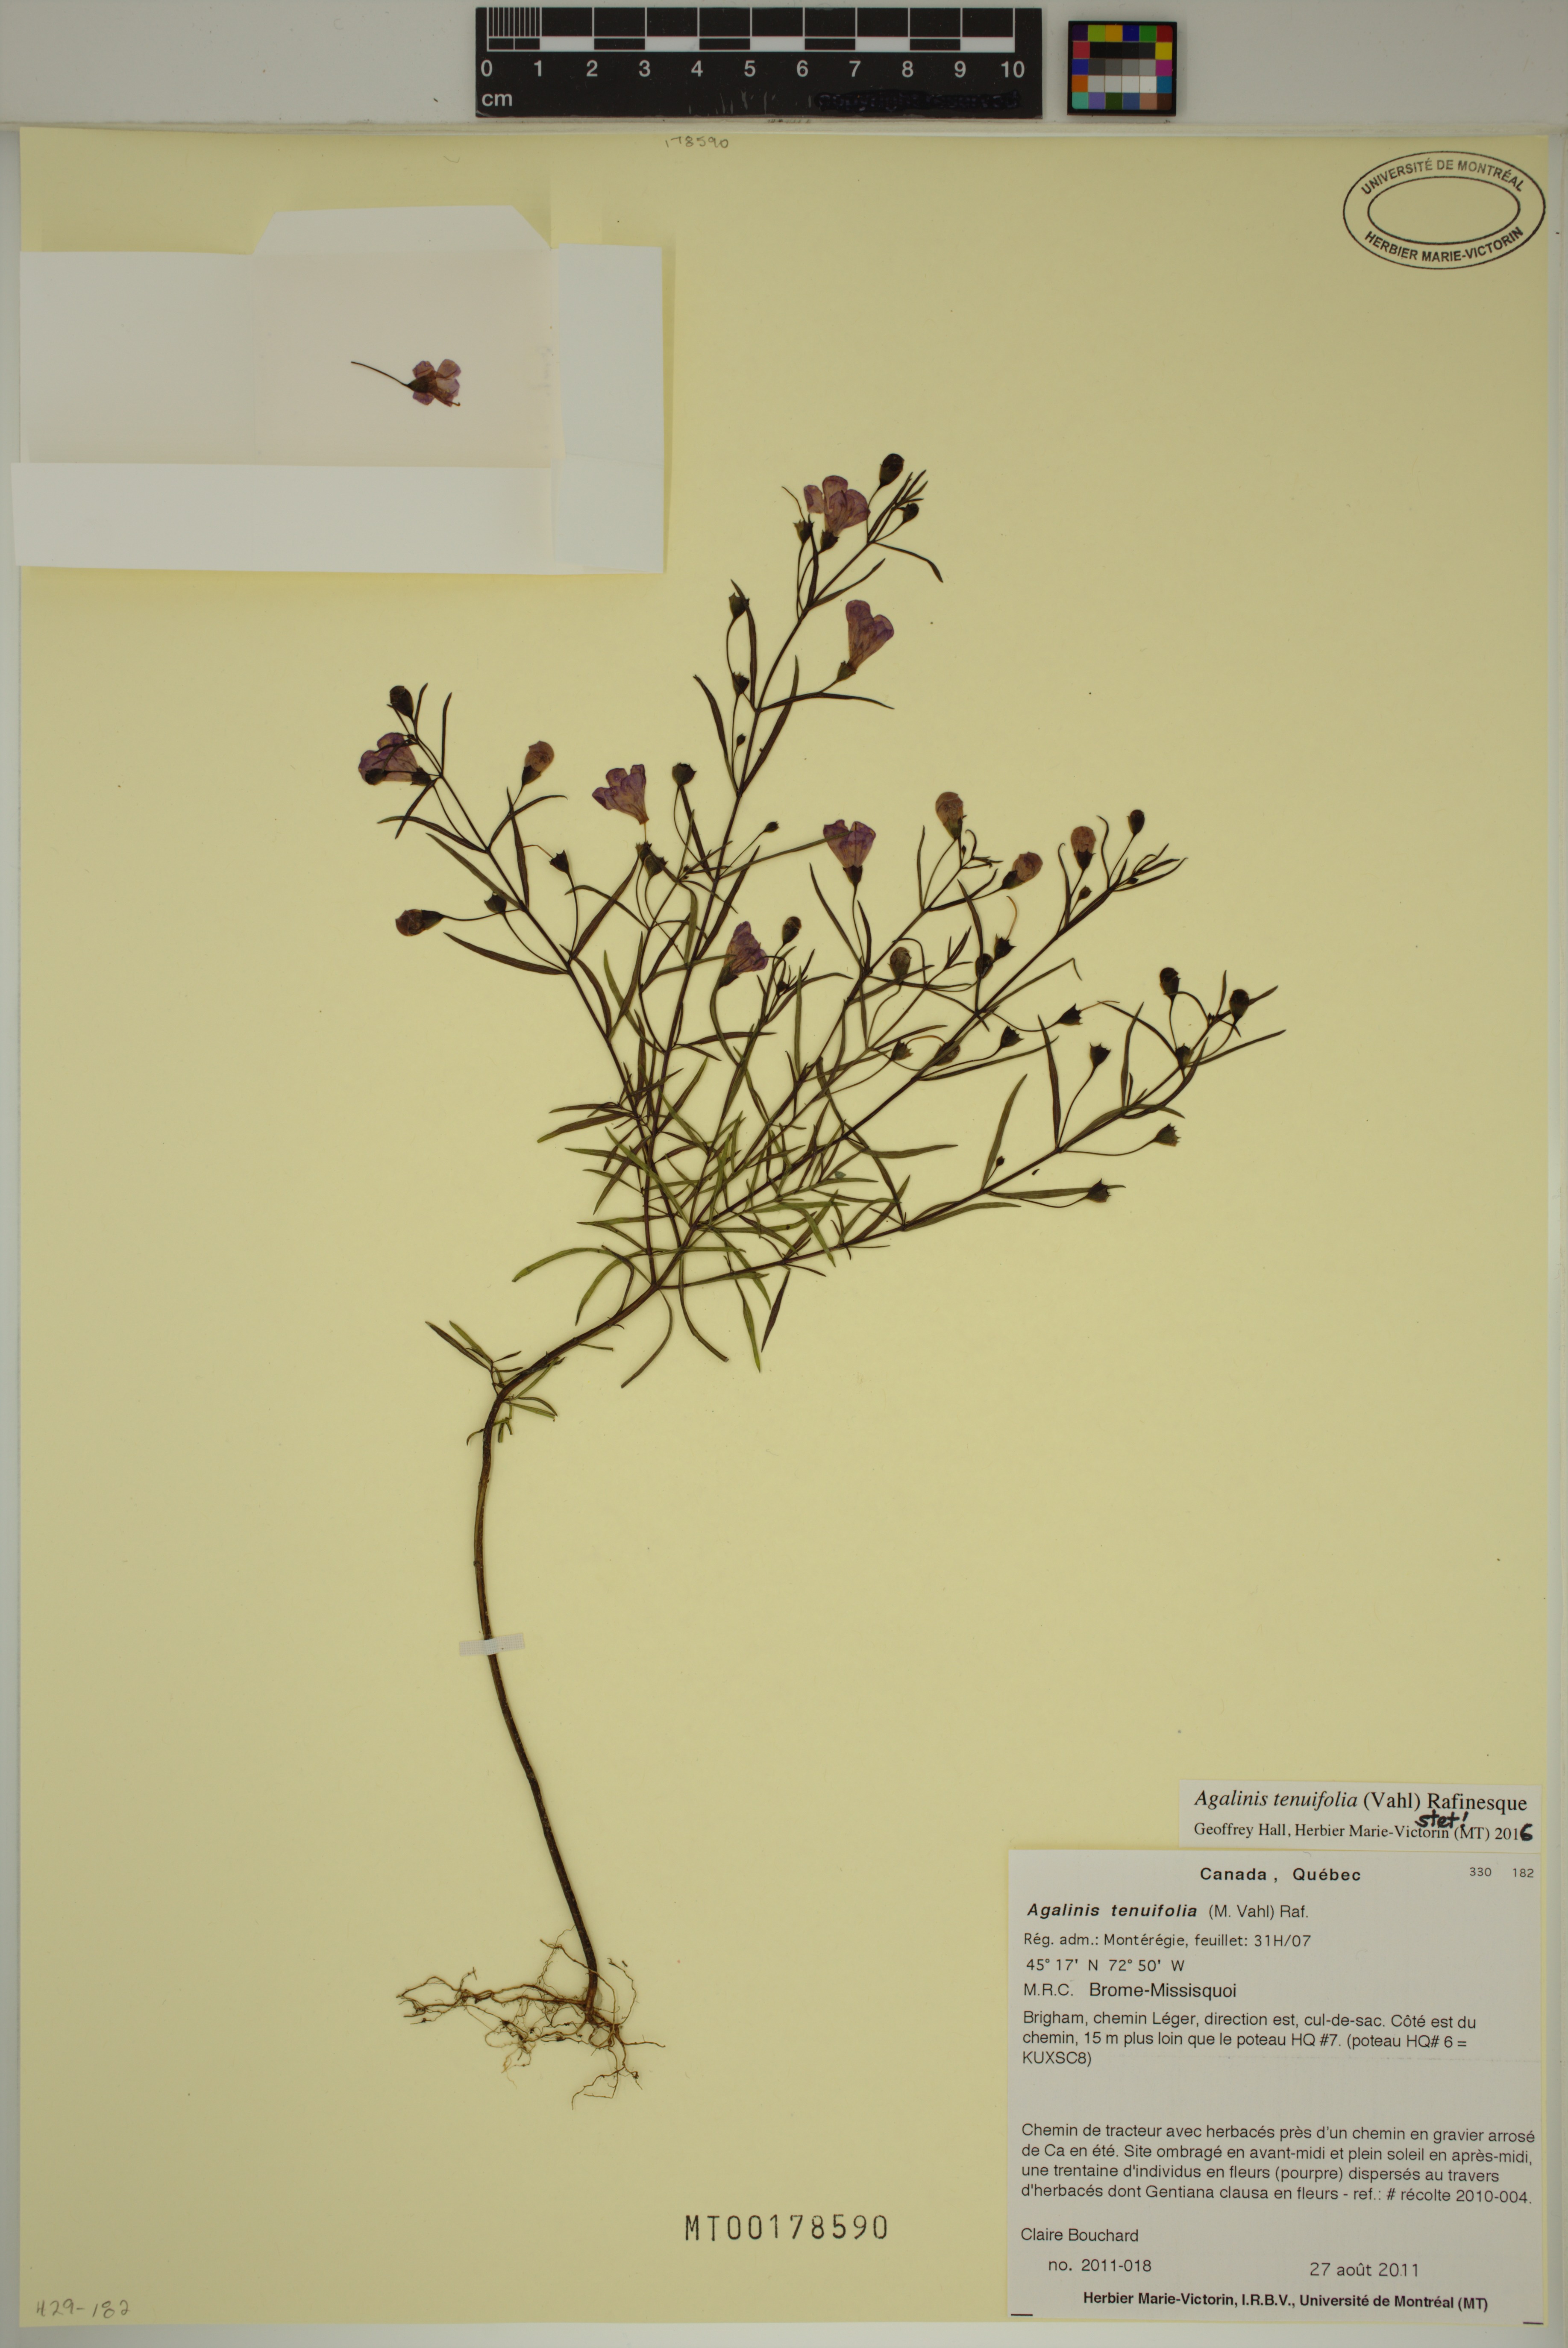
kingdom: Plantae
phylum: Tracheophyta
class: Magnoliopsida
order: Lamiales
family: Orobanchaceae
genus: Agalinis
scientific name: Agalinis tenuifolia
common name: Slender agalinis
